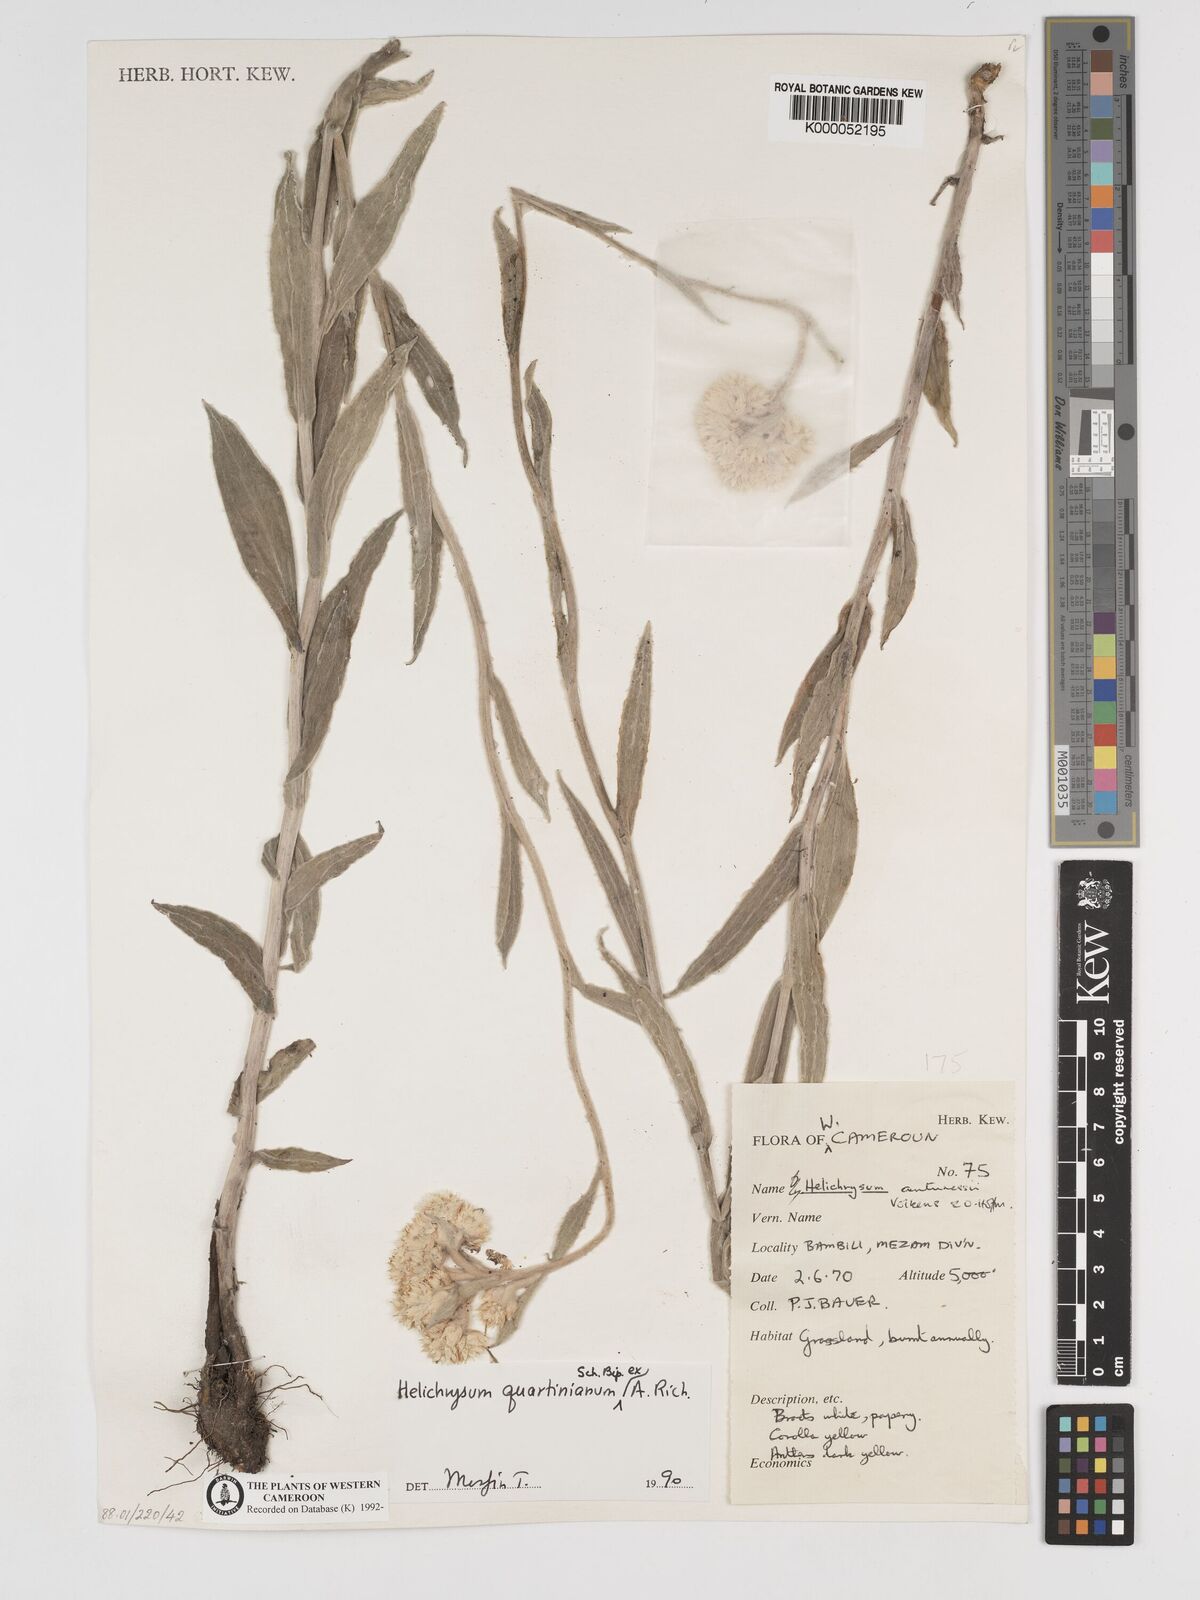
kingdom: Plantae
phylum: Tracheophyta
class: Magnoliopsida
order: Asterales
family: Asteraceae
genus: Helichrysum
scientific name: Helichrysum quartinianum
